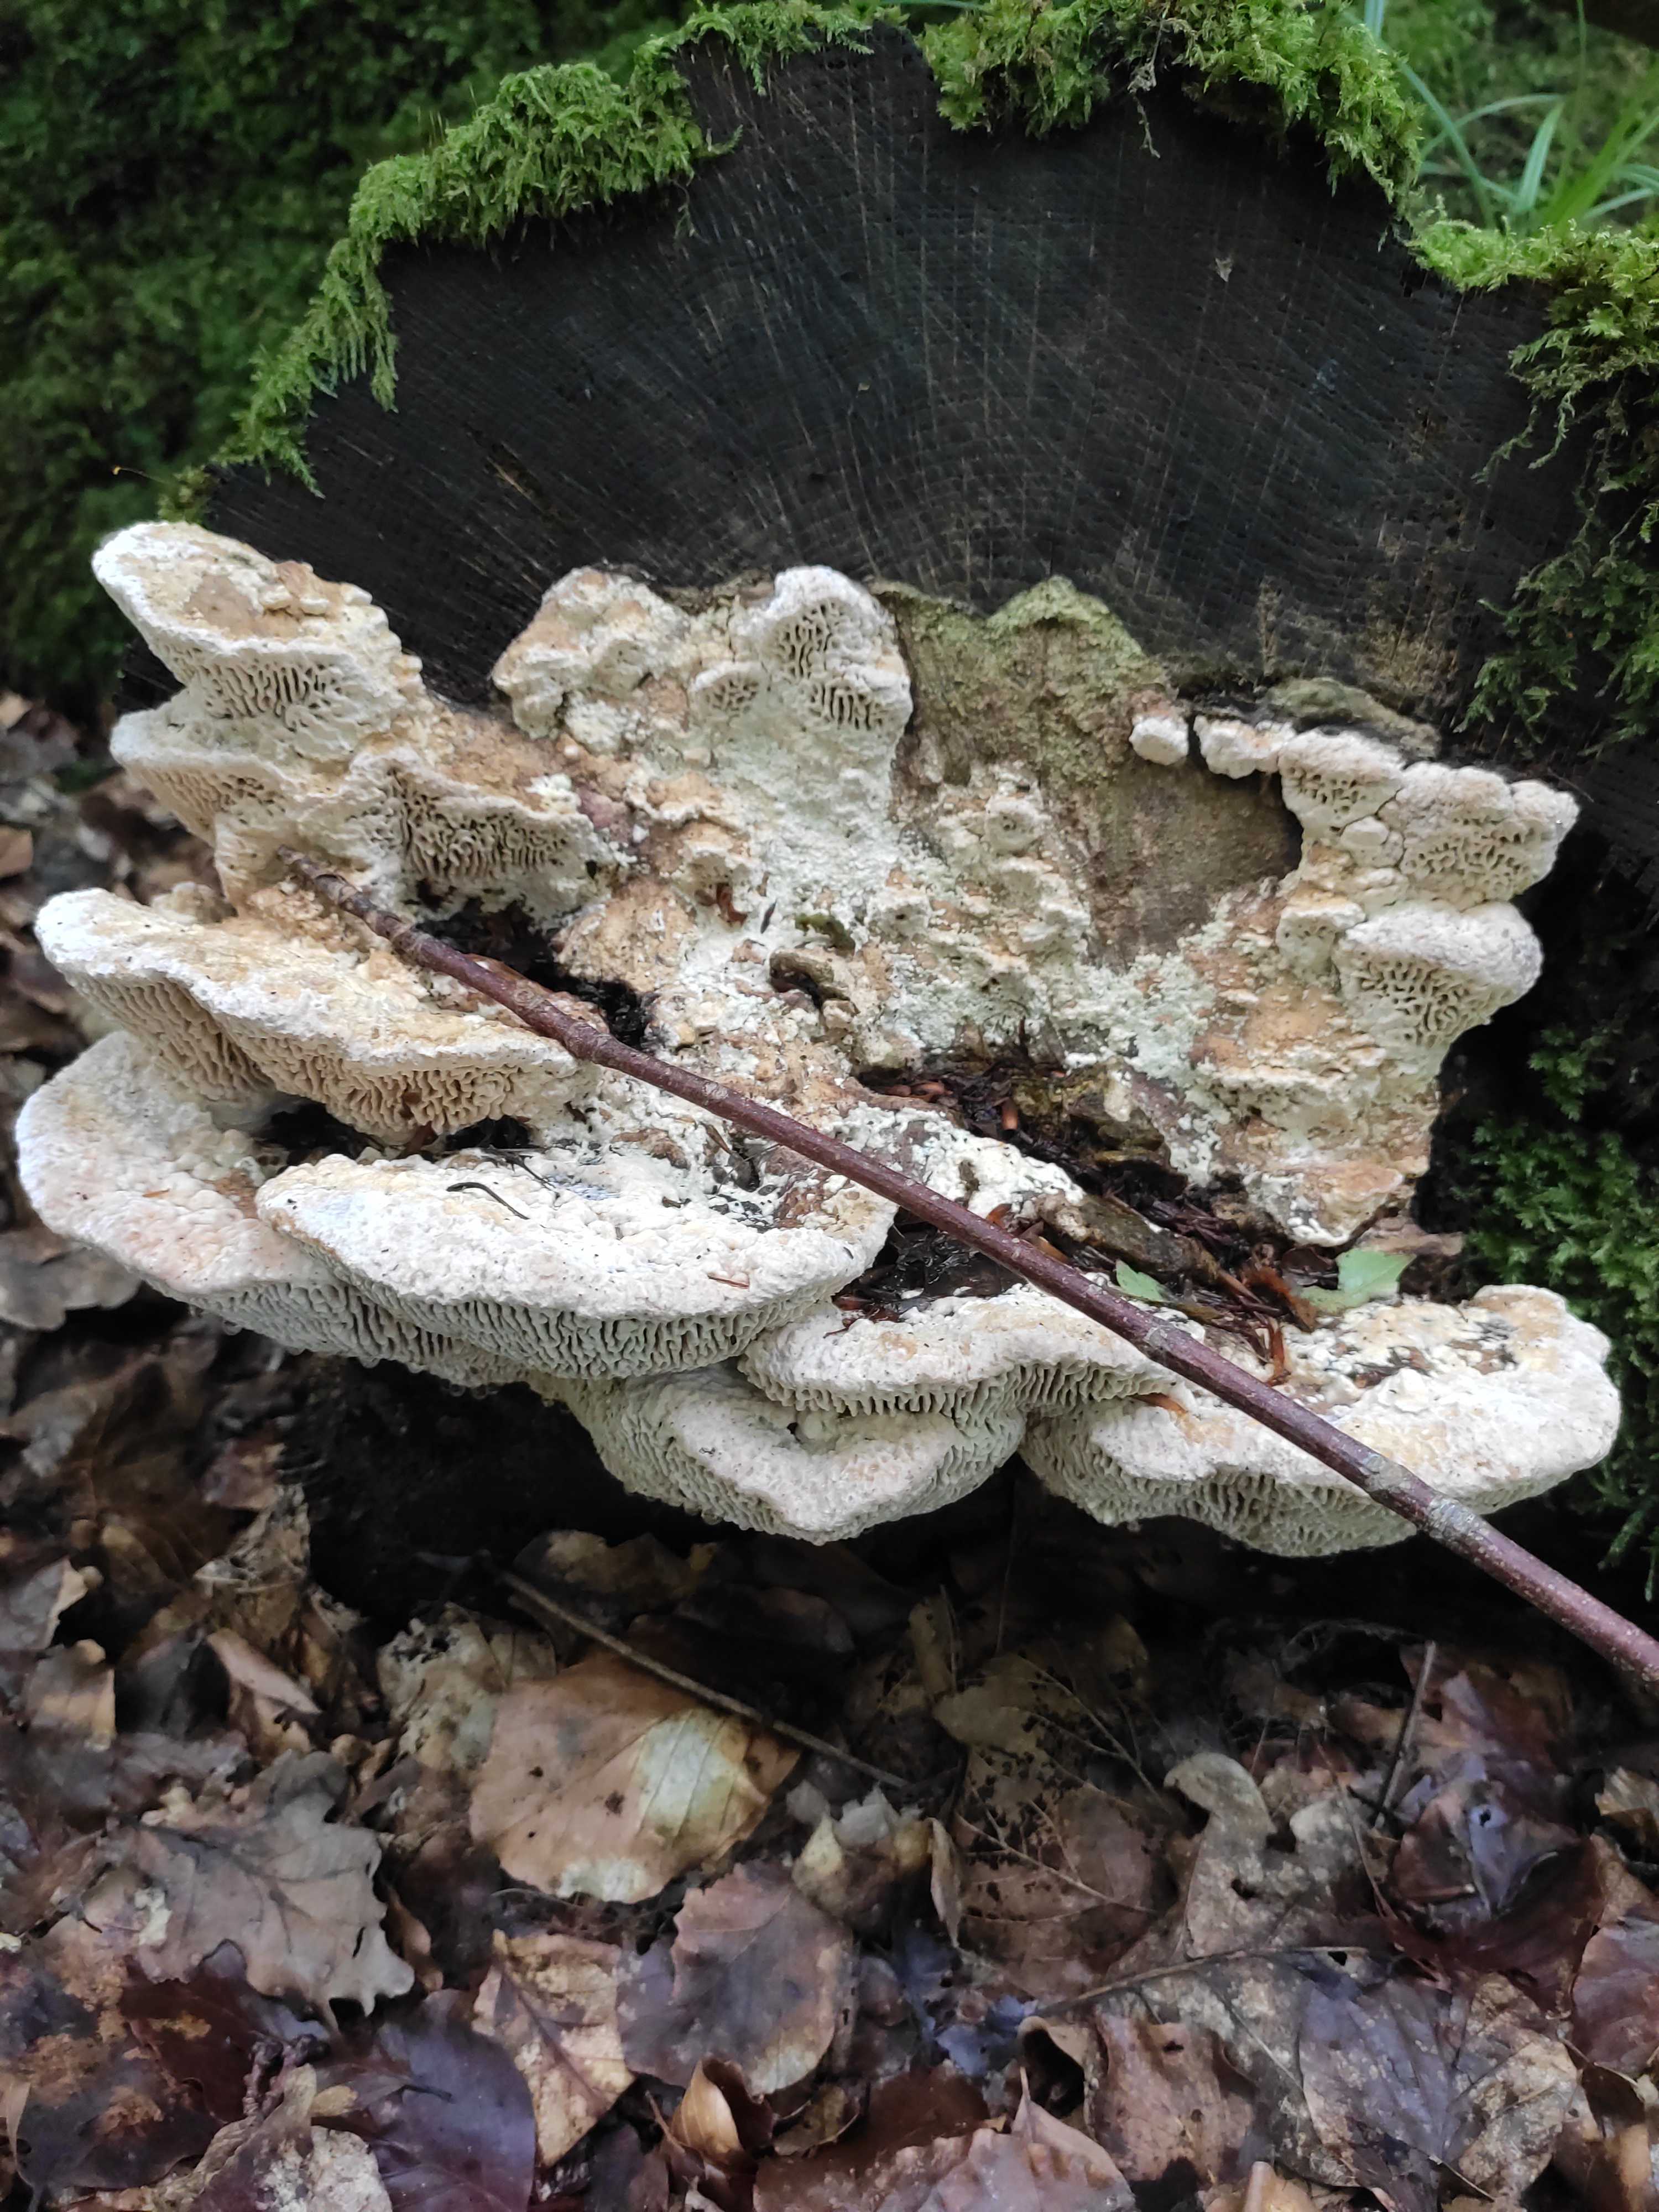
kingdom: Fungi
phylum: Basidiomycota
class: Agaricomycetes
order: Polyporales
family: Fomitopsidaceae
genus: Daedalea
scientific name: Daedalea quercina
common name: ege-labyrintsvamp
